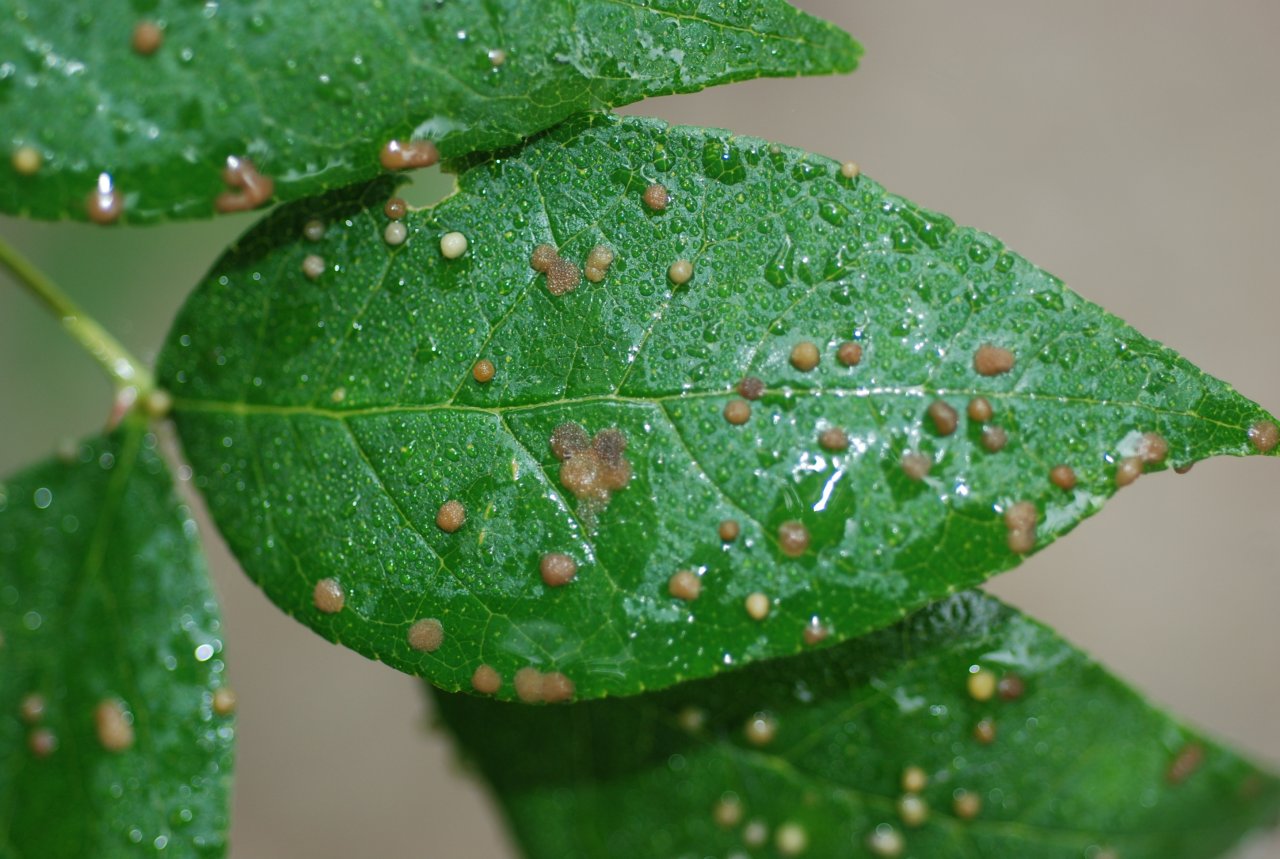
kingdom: Animalia
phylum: Arthropoda
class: Insecta
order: Lepidoptera
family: Papilionidae
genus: Papilio
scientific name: Papilio cresphontes
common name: Eastern Giant Swallowtail
